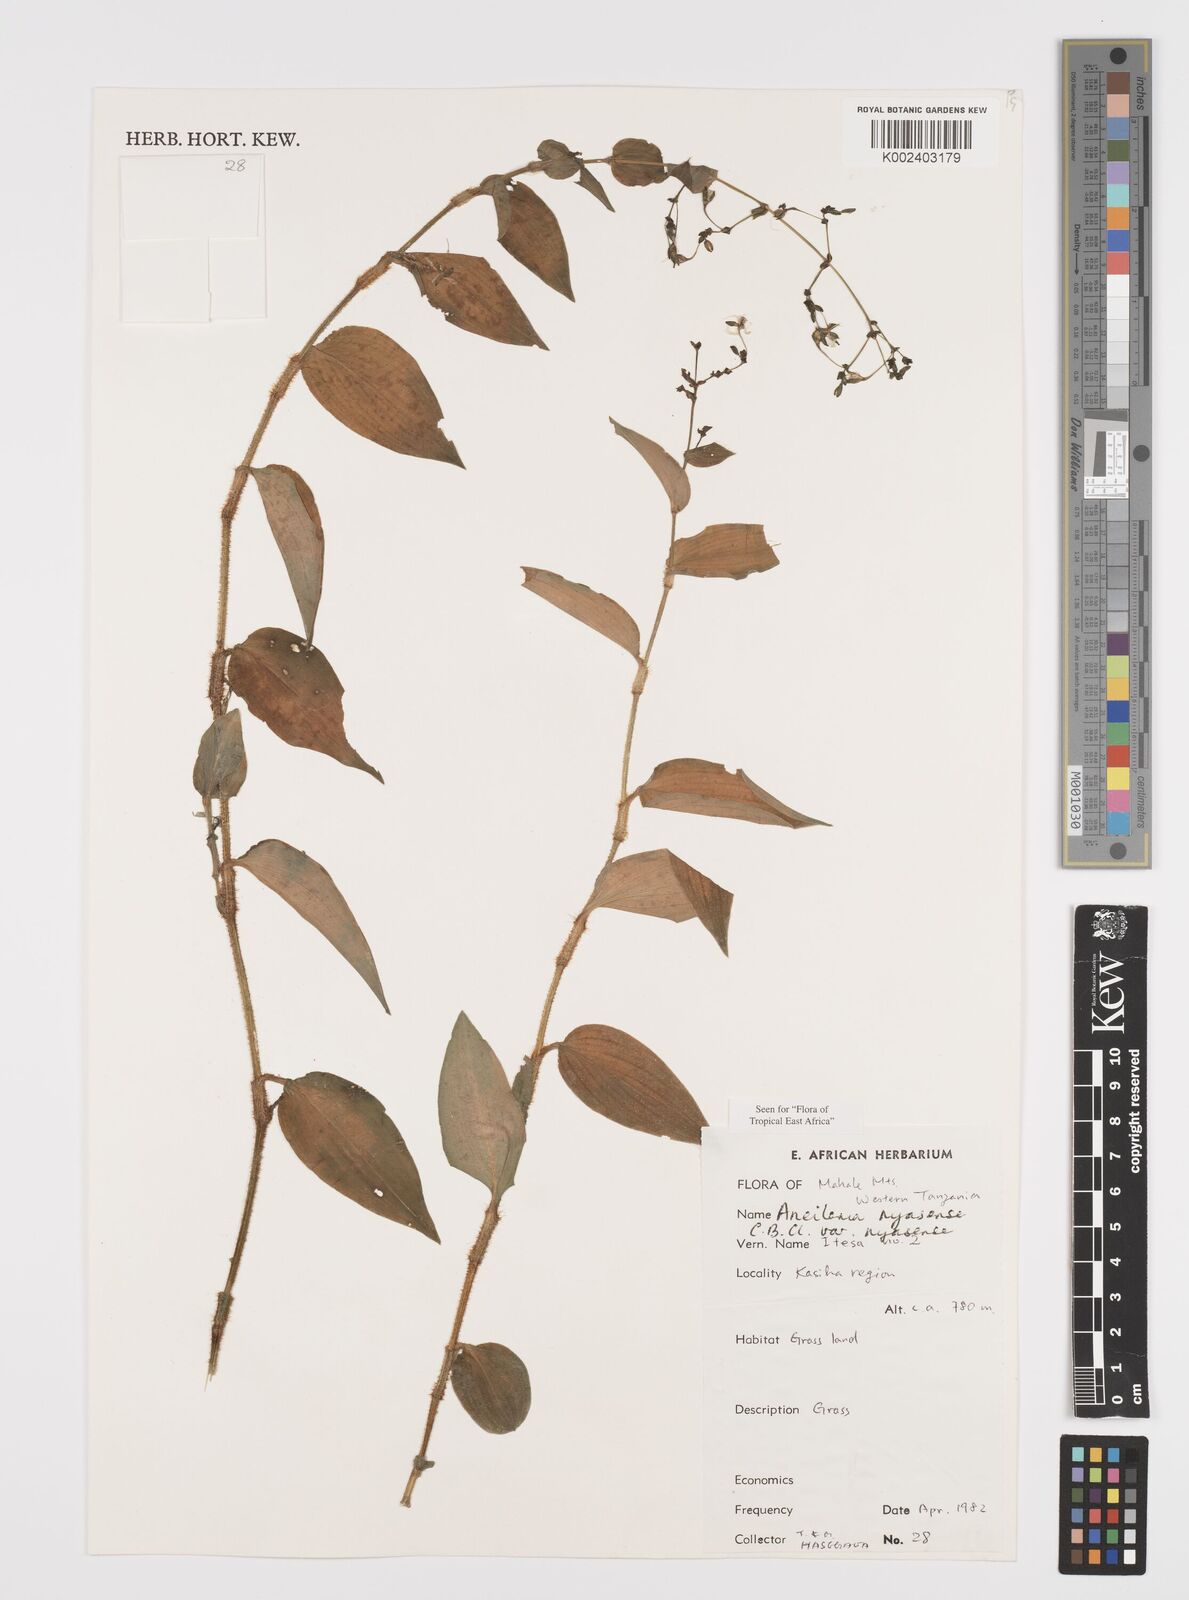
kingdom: Plantae
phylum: Tracheophyta
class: Liliopsida
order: Commelinales
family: Commelinaceae
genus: Aneilema
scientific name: Aneilema nyasense
